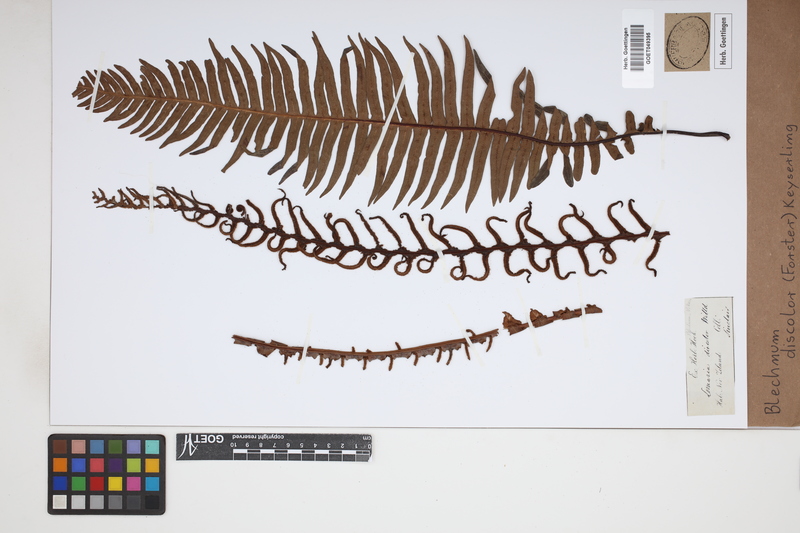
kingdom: Plantae
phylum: Tracheophyta
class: Polypodiopsida
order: Polypodiales
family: Blechnaceae
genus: Lomaria
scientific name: Lomaria discolor
